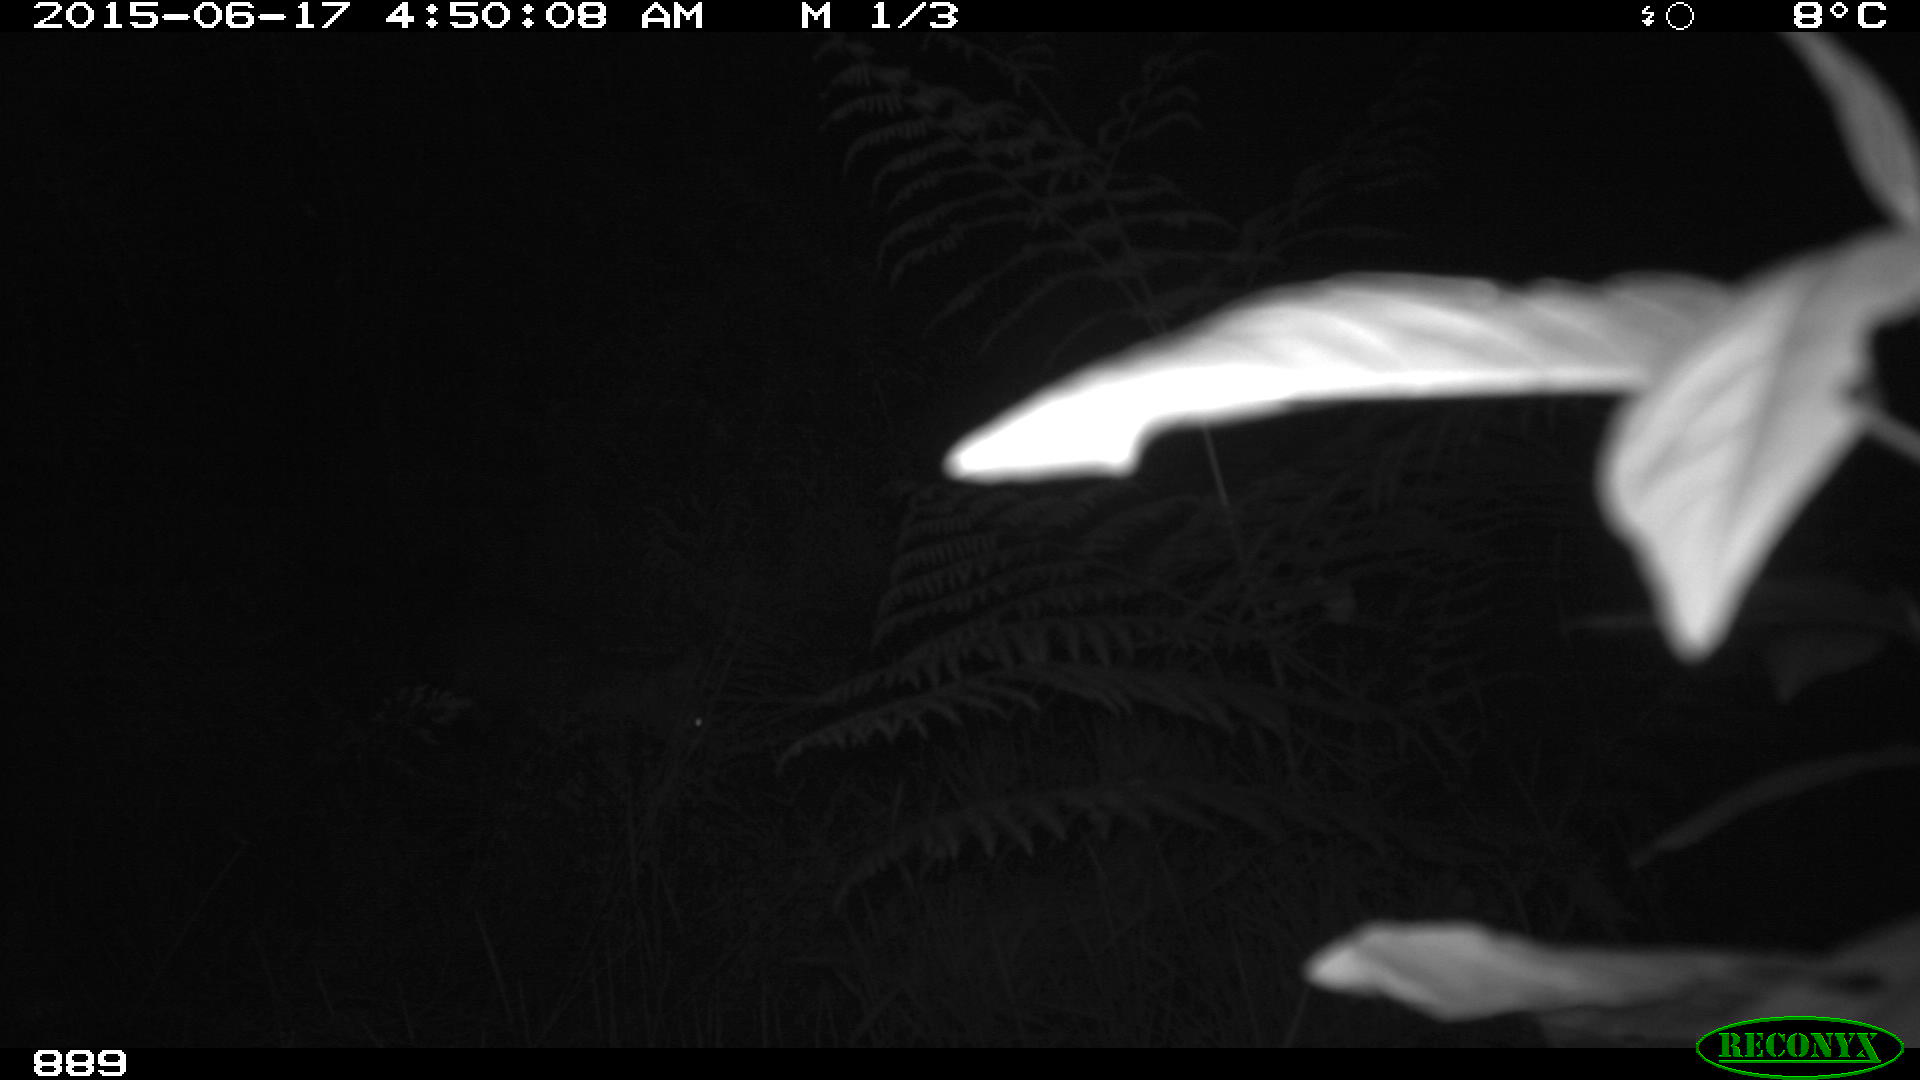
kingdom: Animalia
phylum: Chordata
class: Mammalia
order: Carnivora
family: Canidae
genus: Vulpes
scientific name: Vulpes vulpes
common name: Red fox
